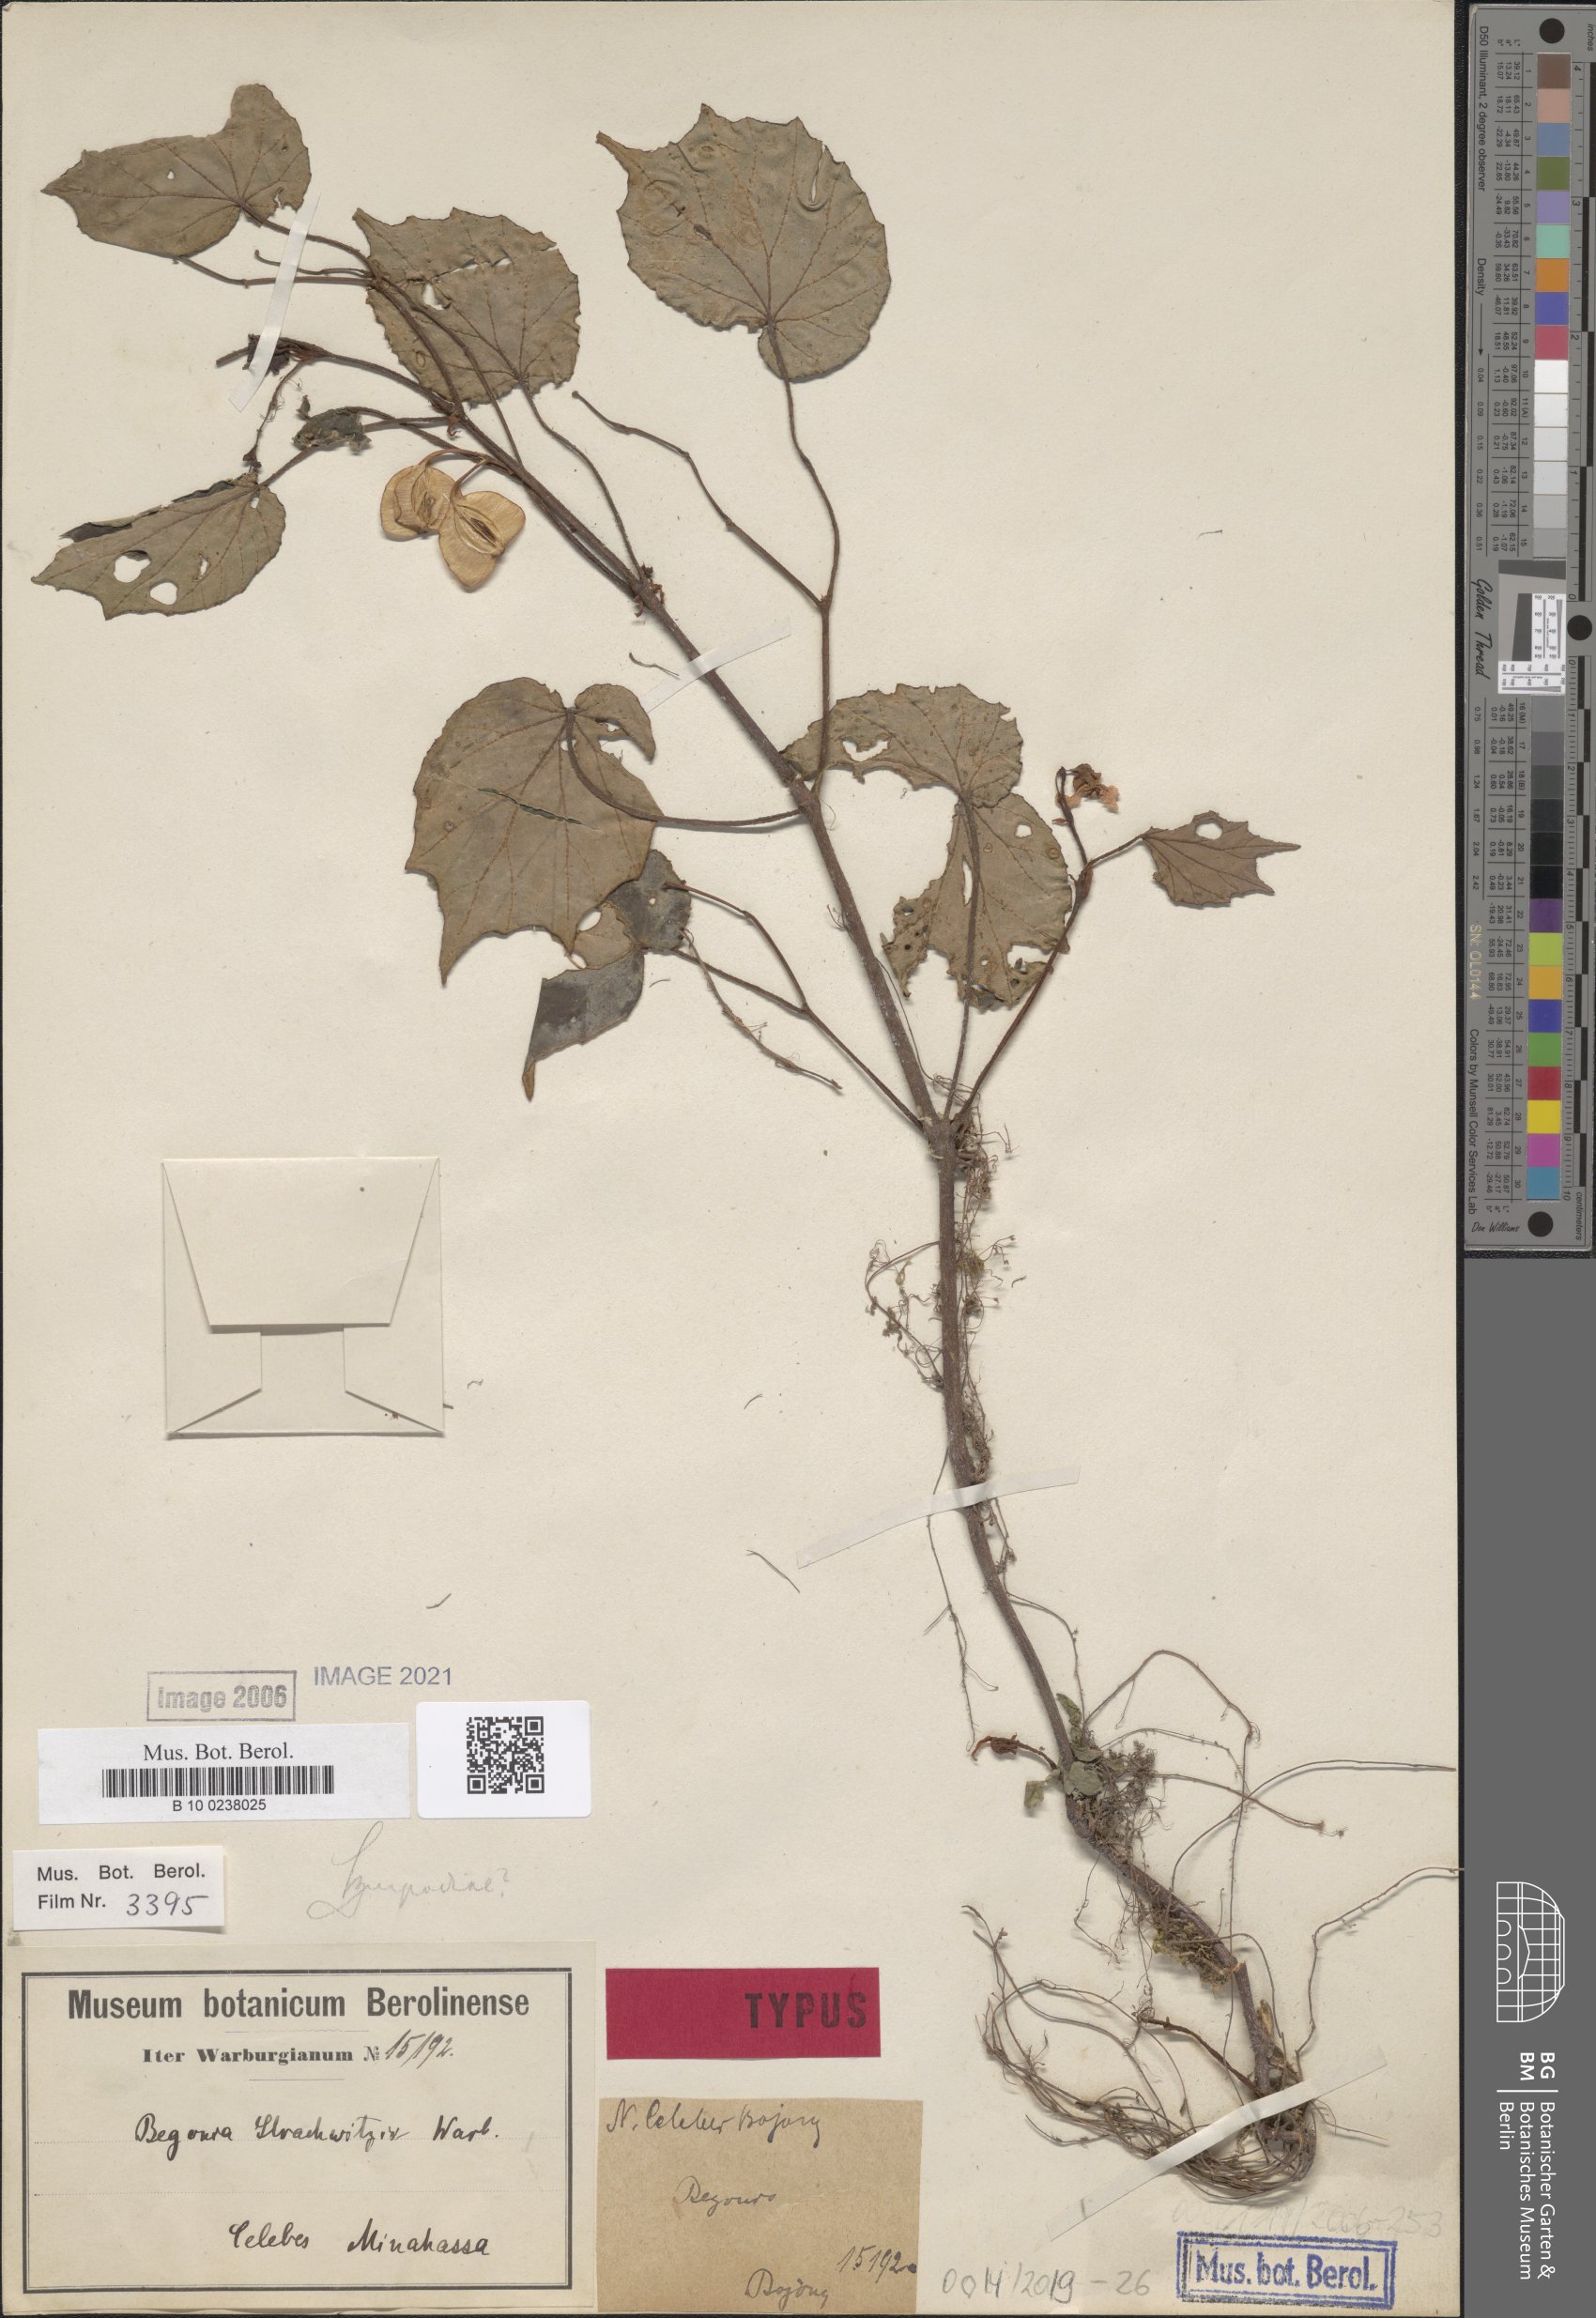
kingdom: Plantae
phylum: Tracheophyta
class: Magnoliopsida
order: Cucurbitales
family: Begoniaceae
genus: Begonia
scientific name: Begonia strachwitzii
